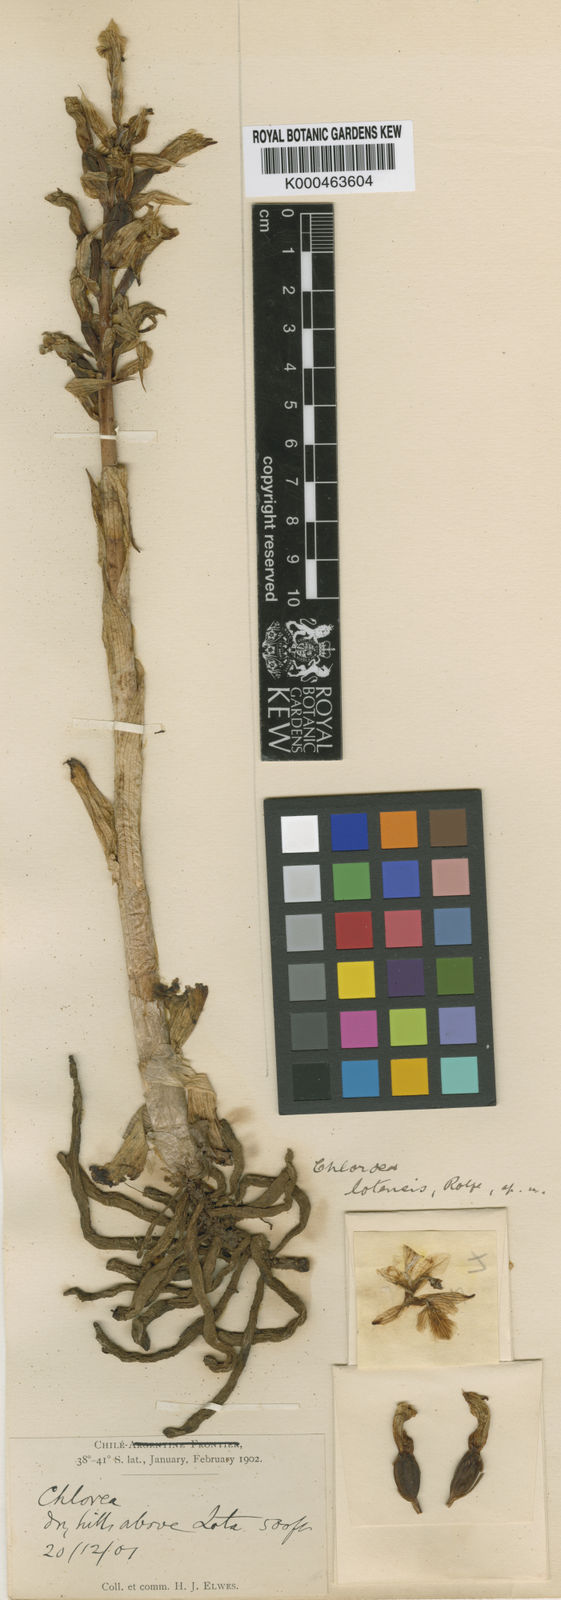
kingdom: Plantae
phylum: Tracheophyta
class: Liliopsida
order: Asparagales
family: Orchidaceae
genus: Chloraea
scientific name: Chloraea gavilu
